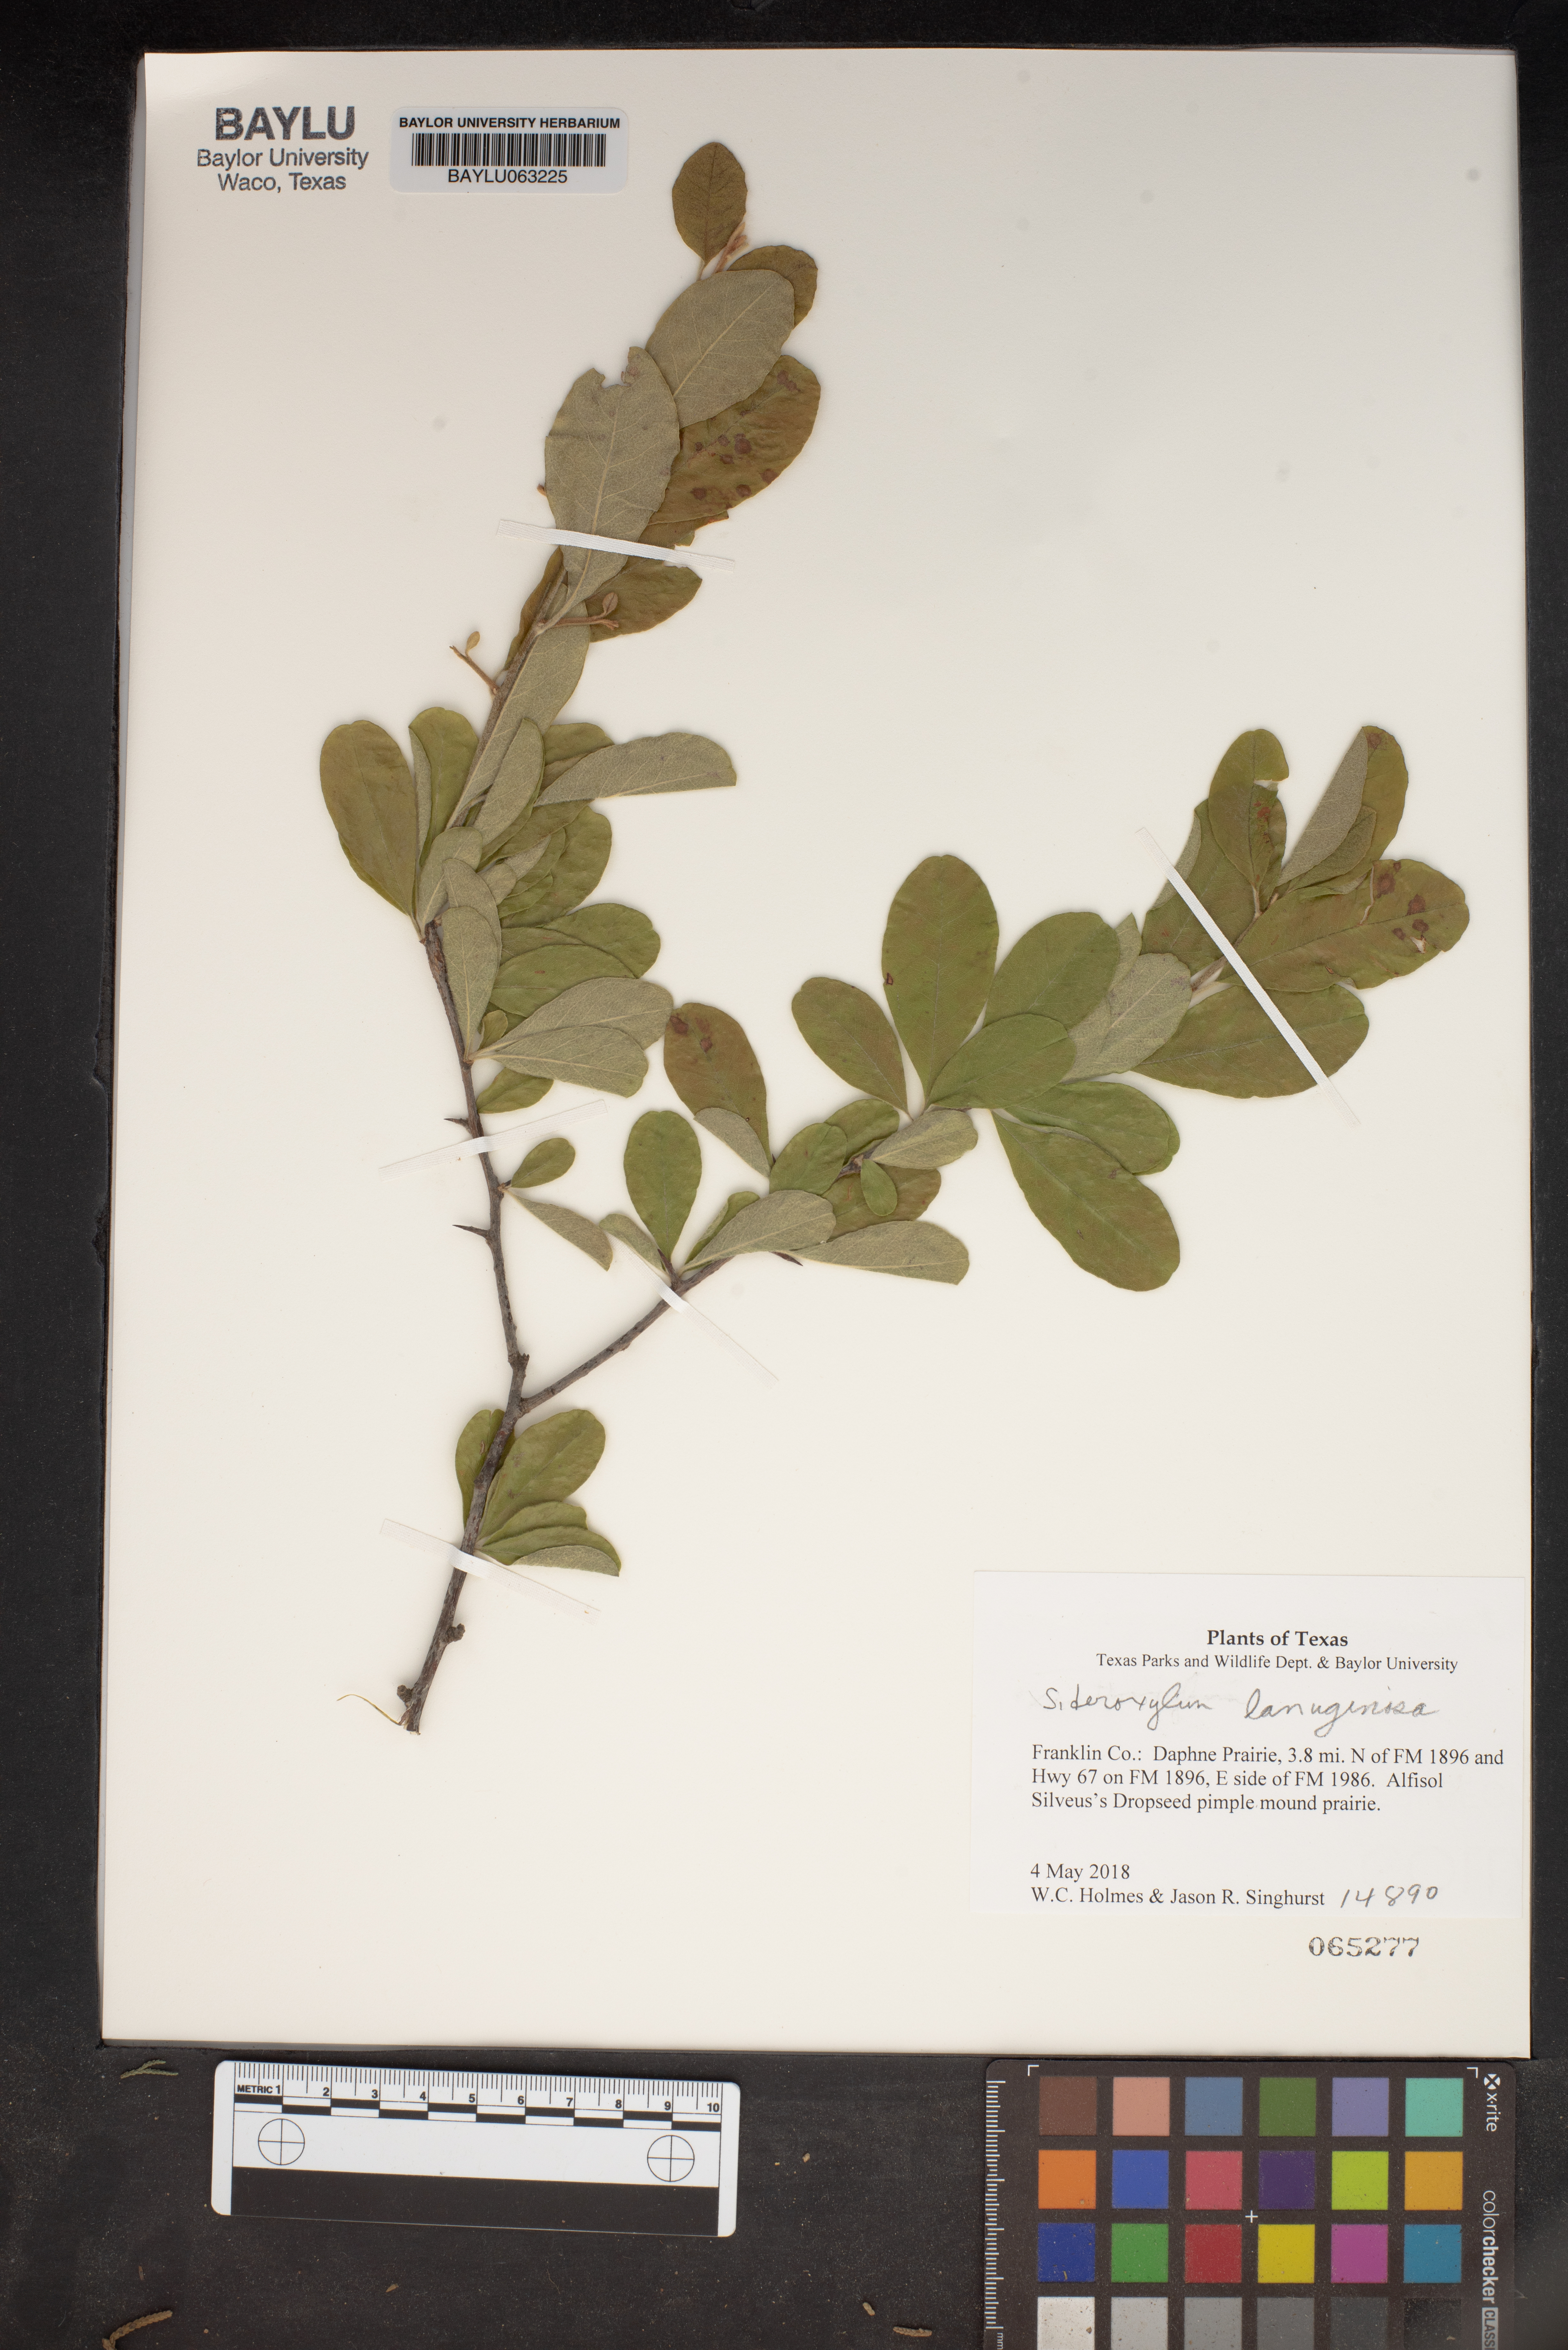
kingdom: Plantae
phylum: Tracheophyta
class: Magnoliopsida
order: Ericales
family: Sapotaceae
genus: Sideroxylon
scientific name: Sideroxylon lanuginosum
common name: Chittamwood
